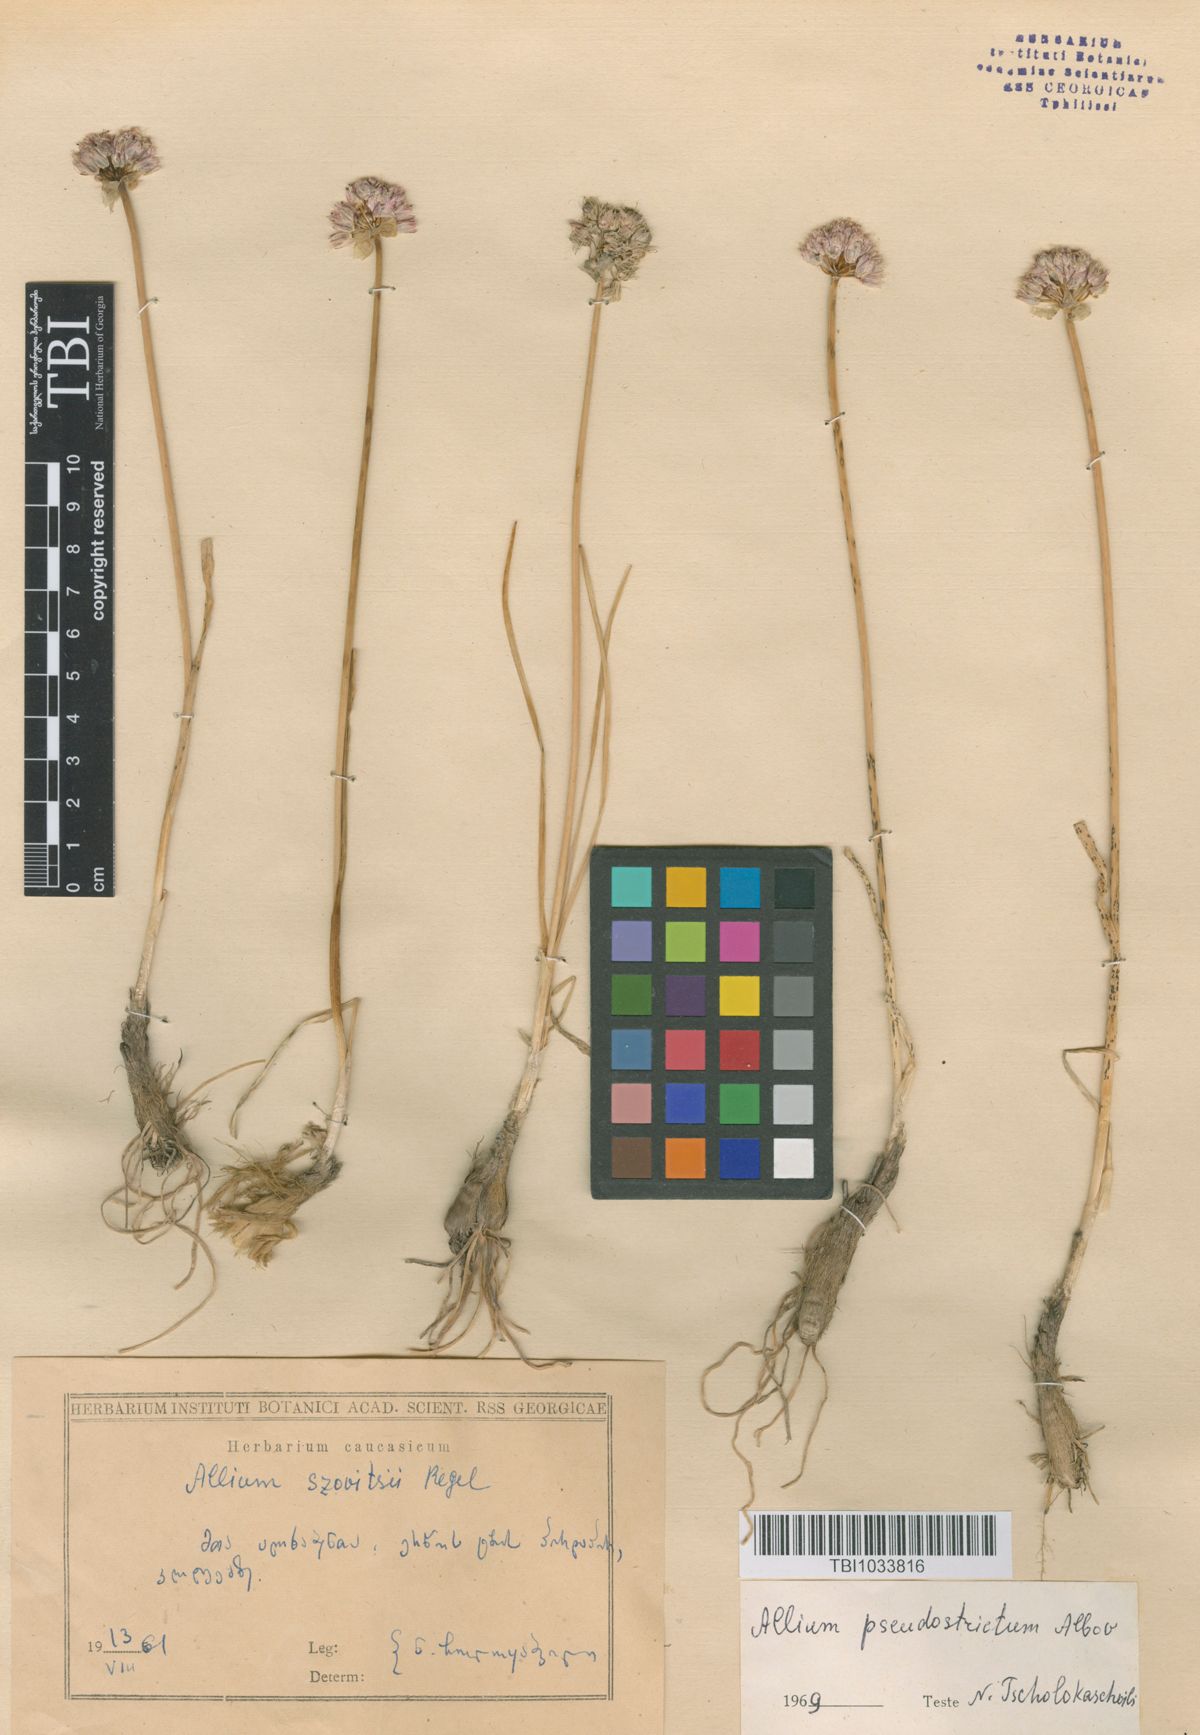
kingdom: Plantae
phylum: Tracheophyta
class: Liliopsida
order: Asparagales
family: Amaryllidaceae
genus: Allium
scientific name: Allium pseudostrictum
